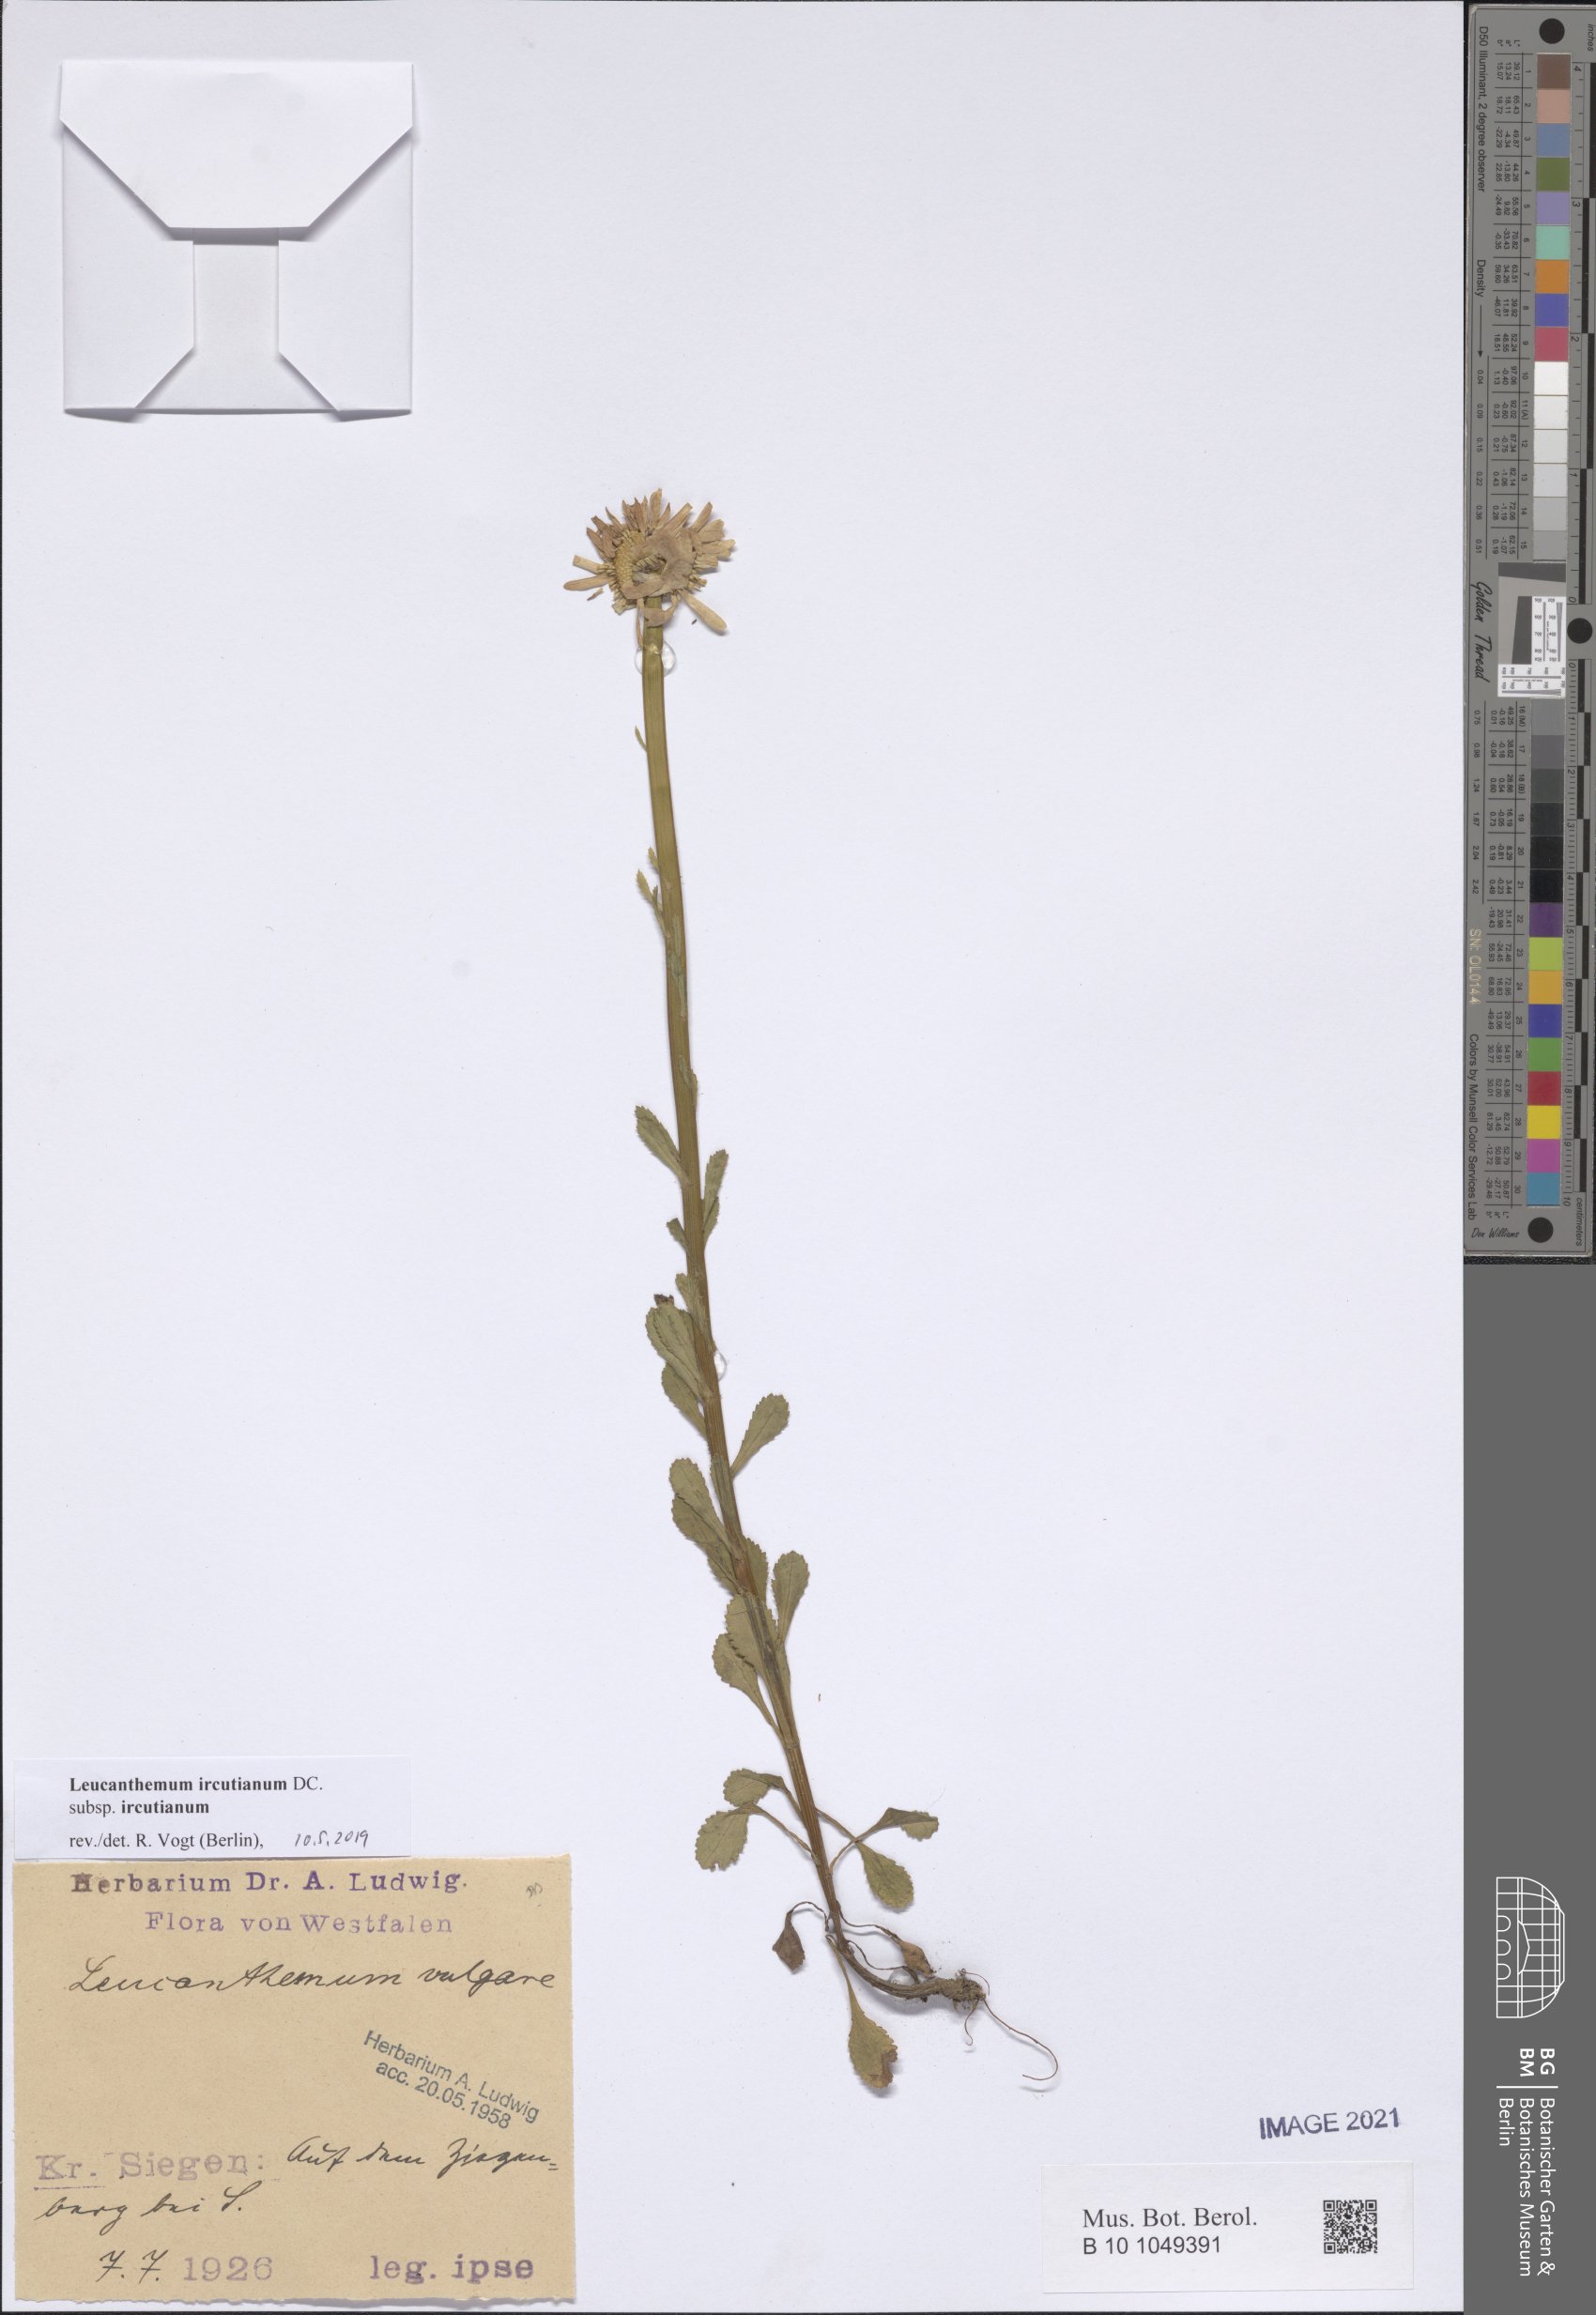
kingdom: Plantae
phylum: Tracheophyta
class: Magnoliopsida
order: Asterales
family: Asteraceae
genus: Leucanthemum
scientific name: Leucanthemum ircutianum
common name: Daisy
